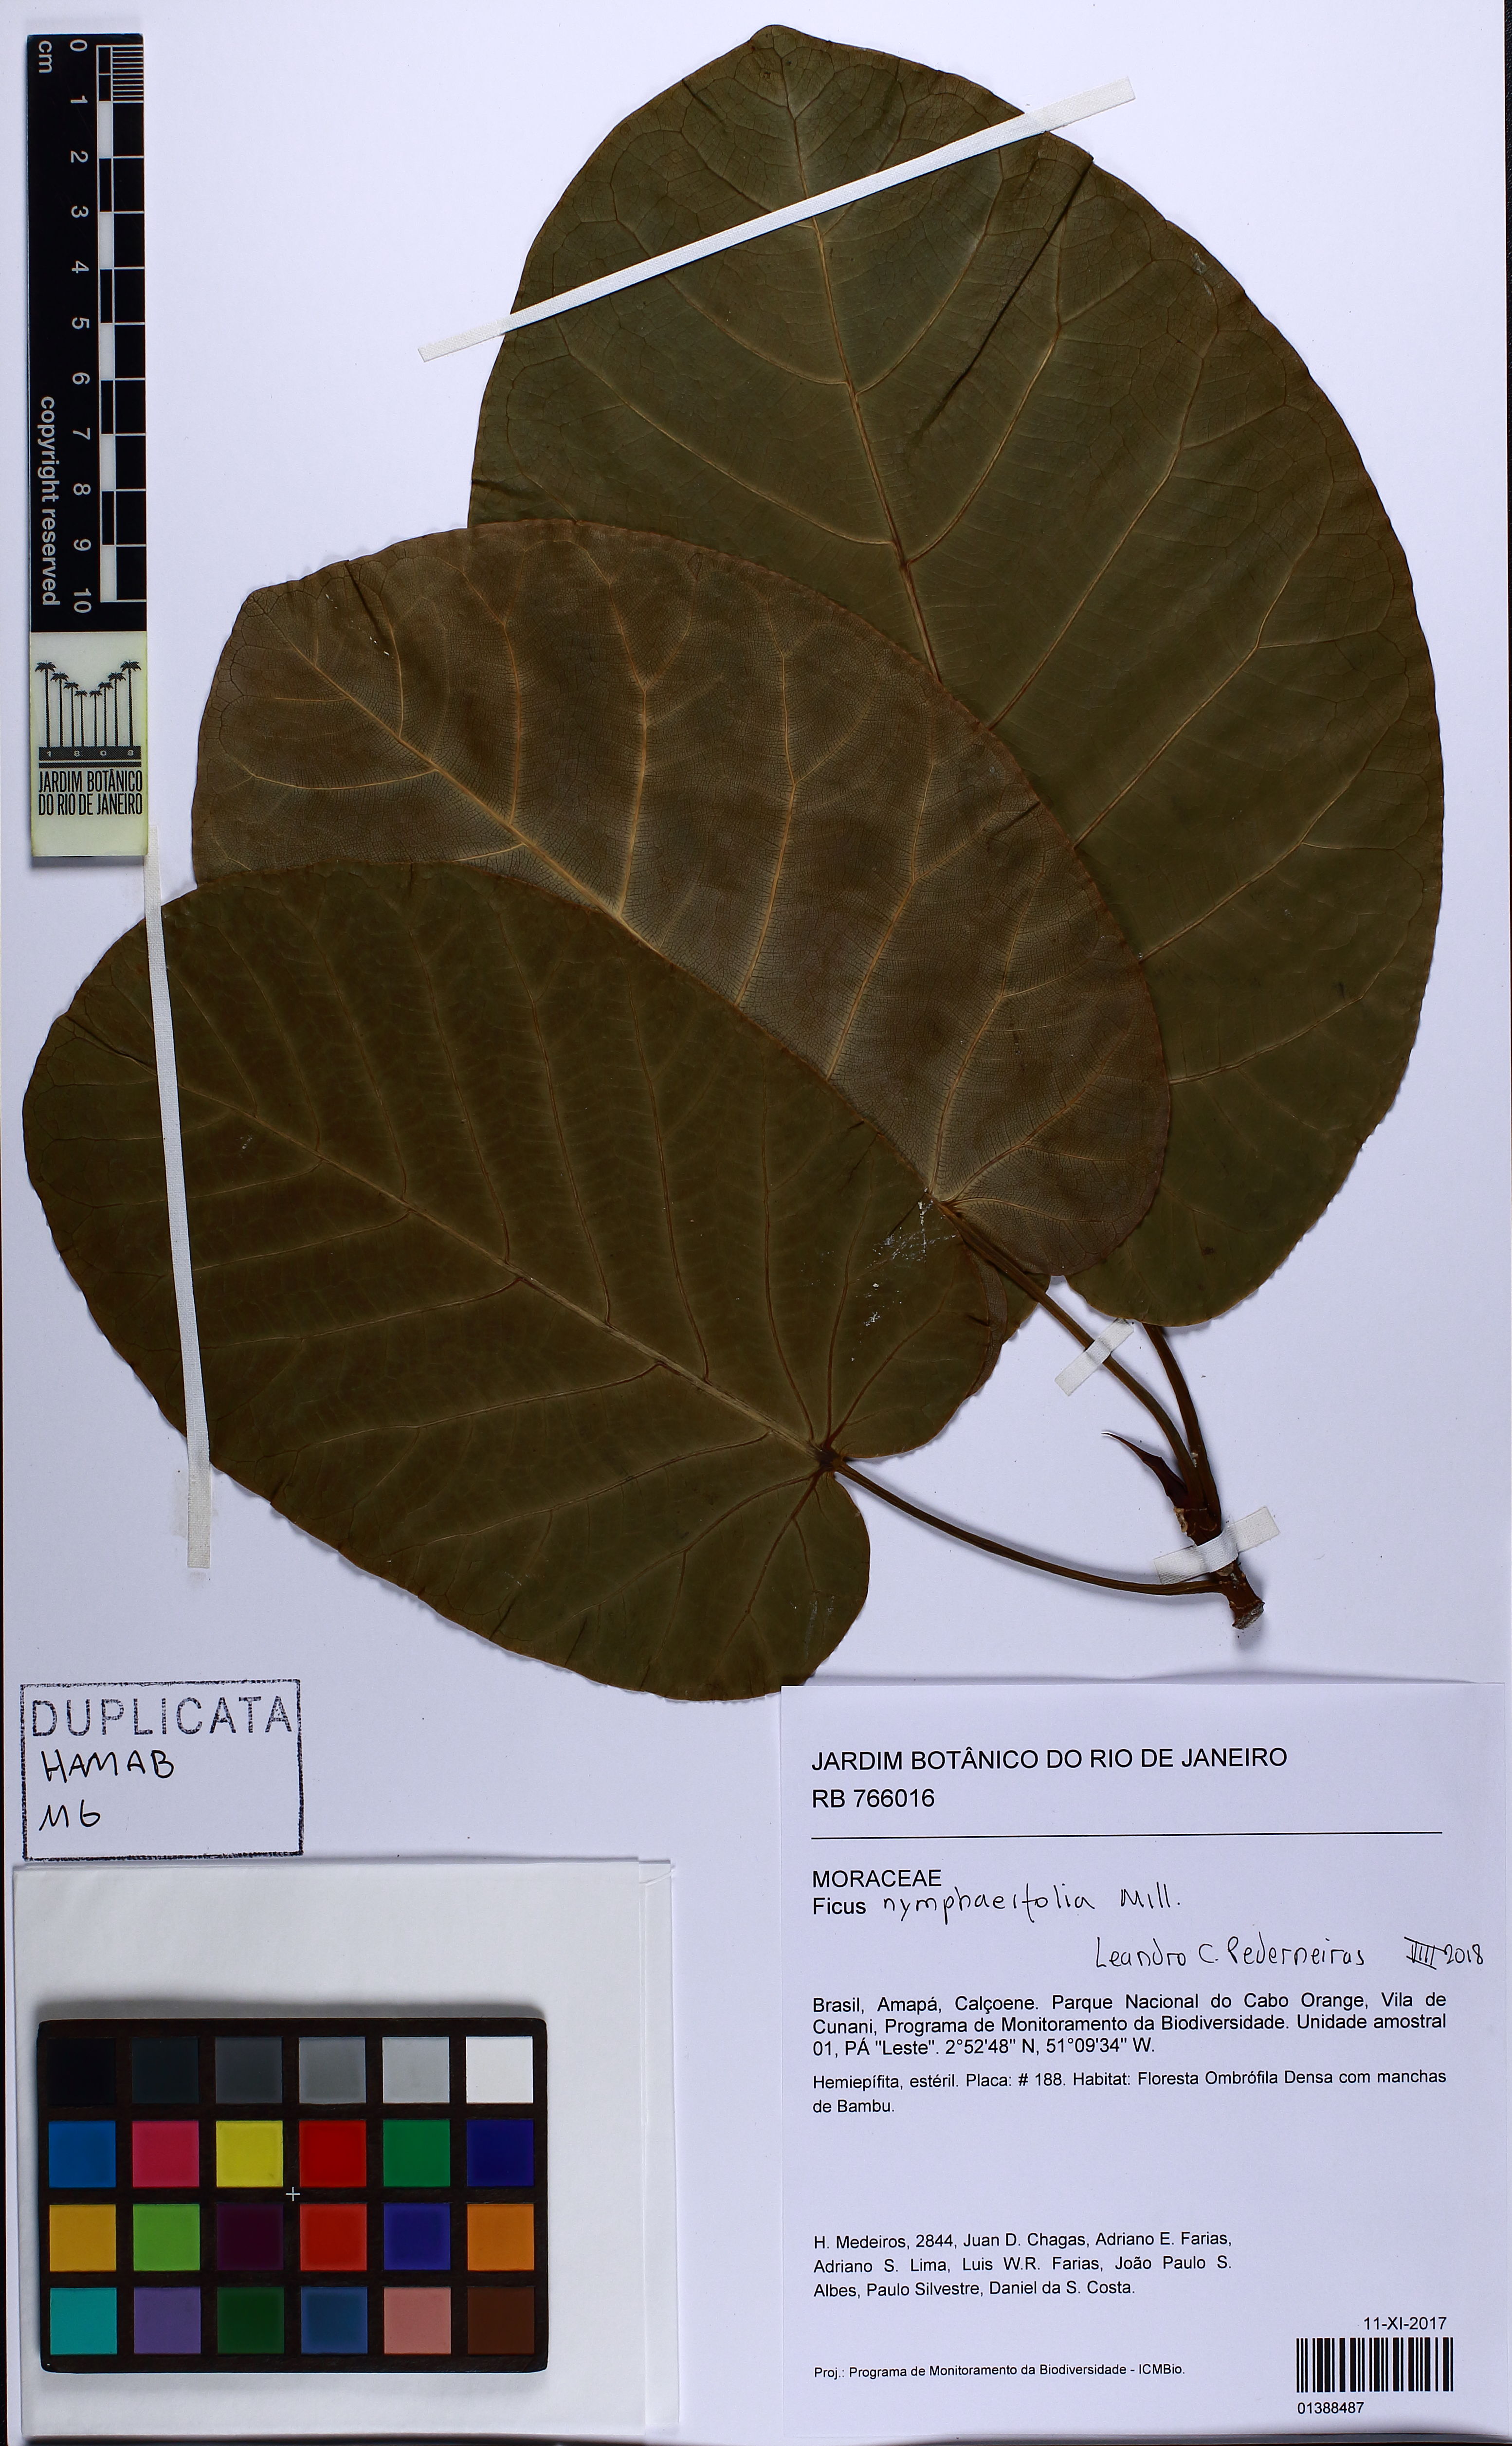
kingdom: Plantae
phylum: Tracheophyta
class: Magnoliopsida
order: Rosales
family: Moraceae
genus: Ficus
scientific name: Ficus nymphaeifolia
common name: Fig
